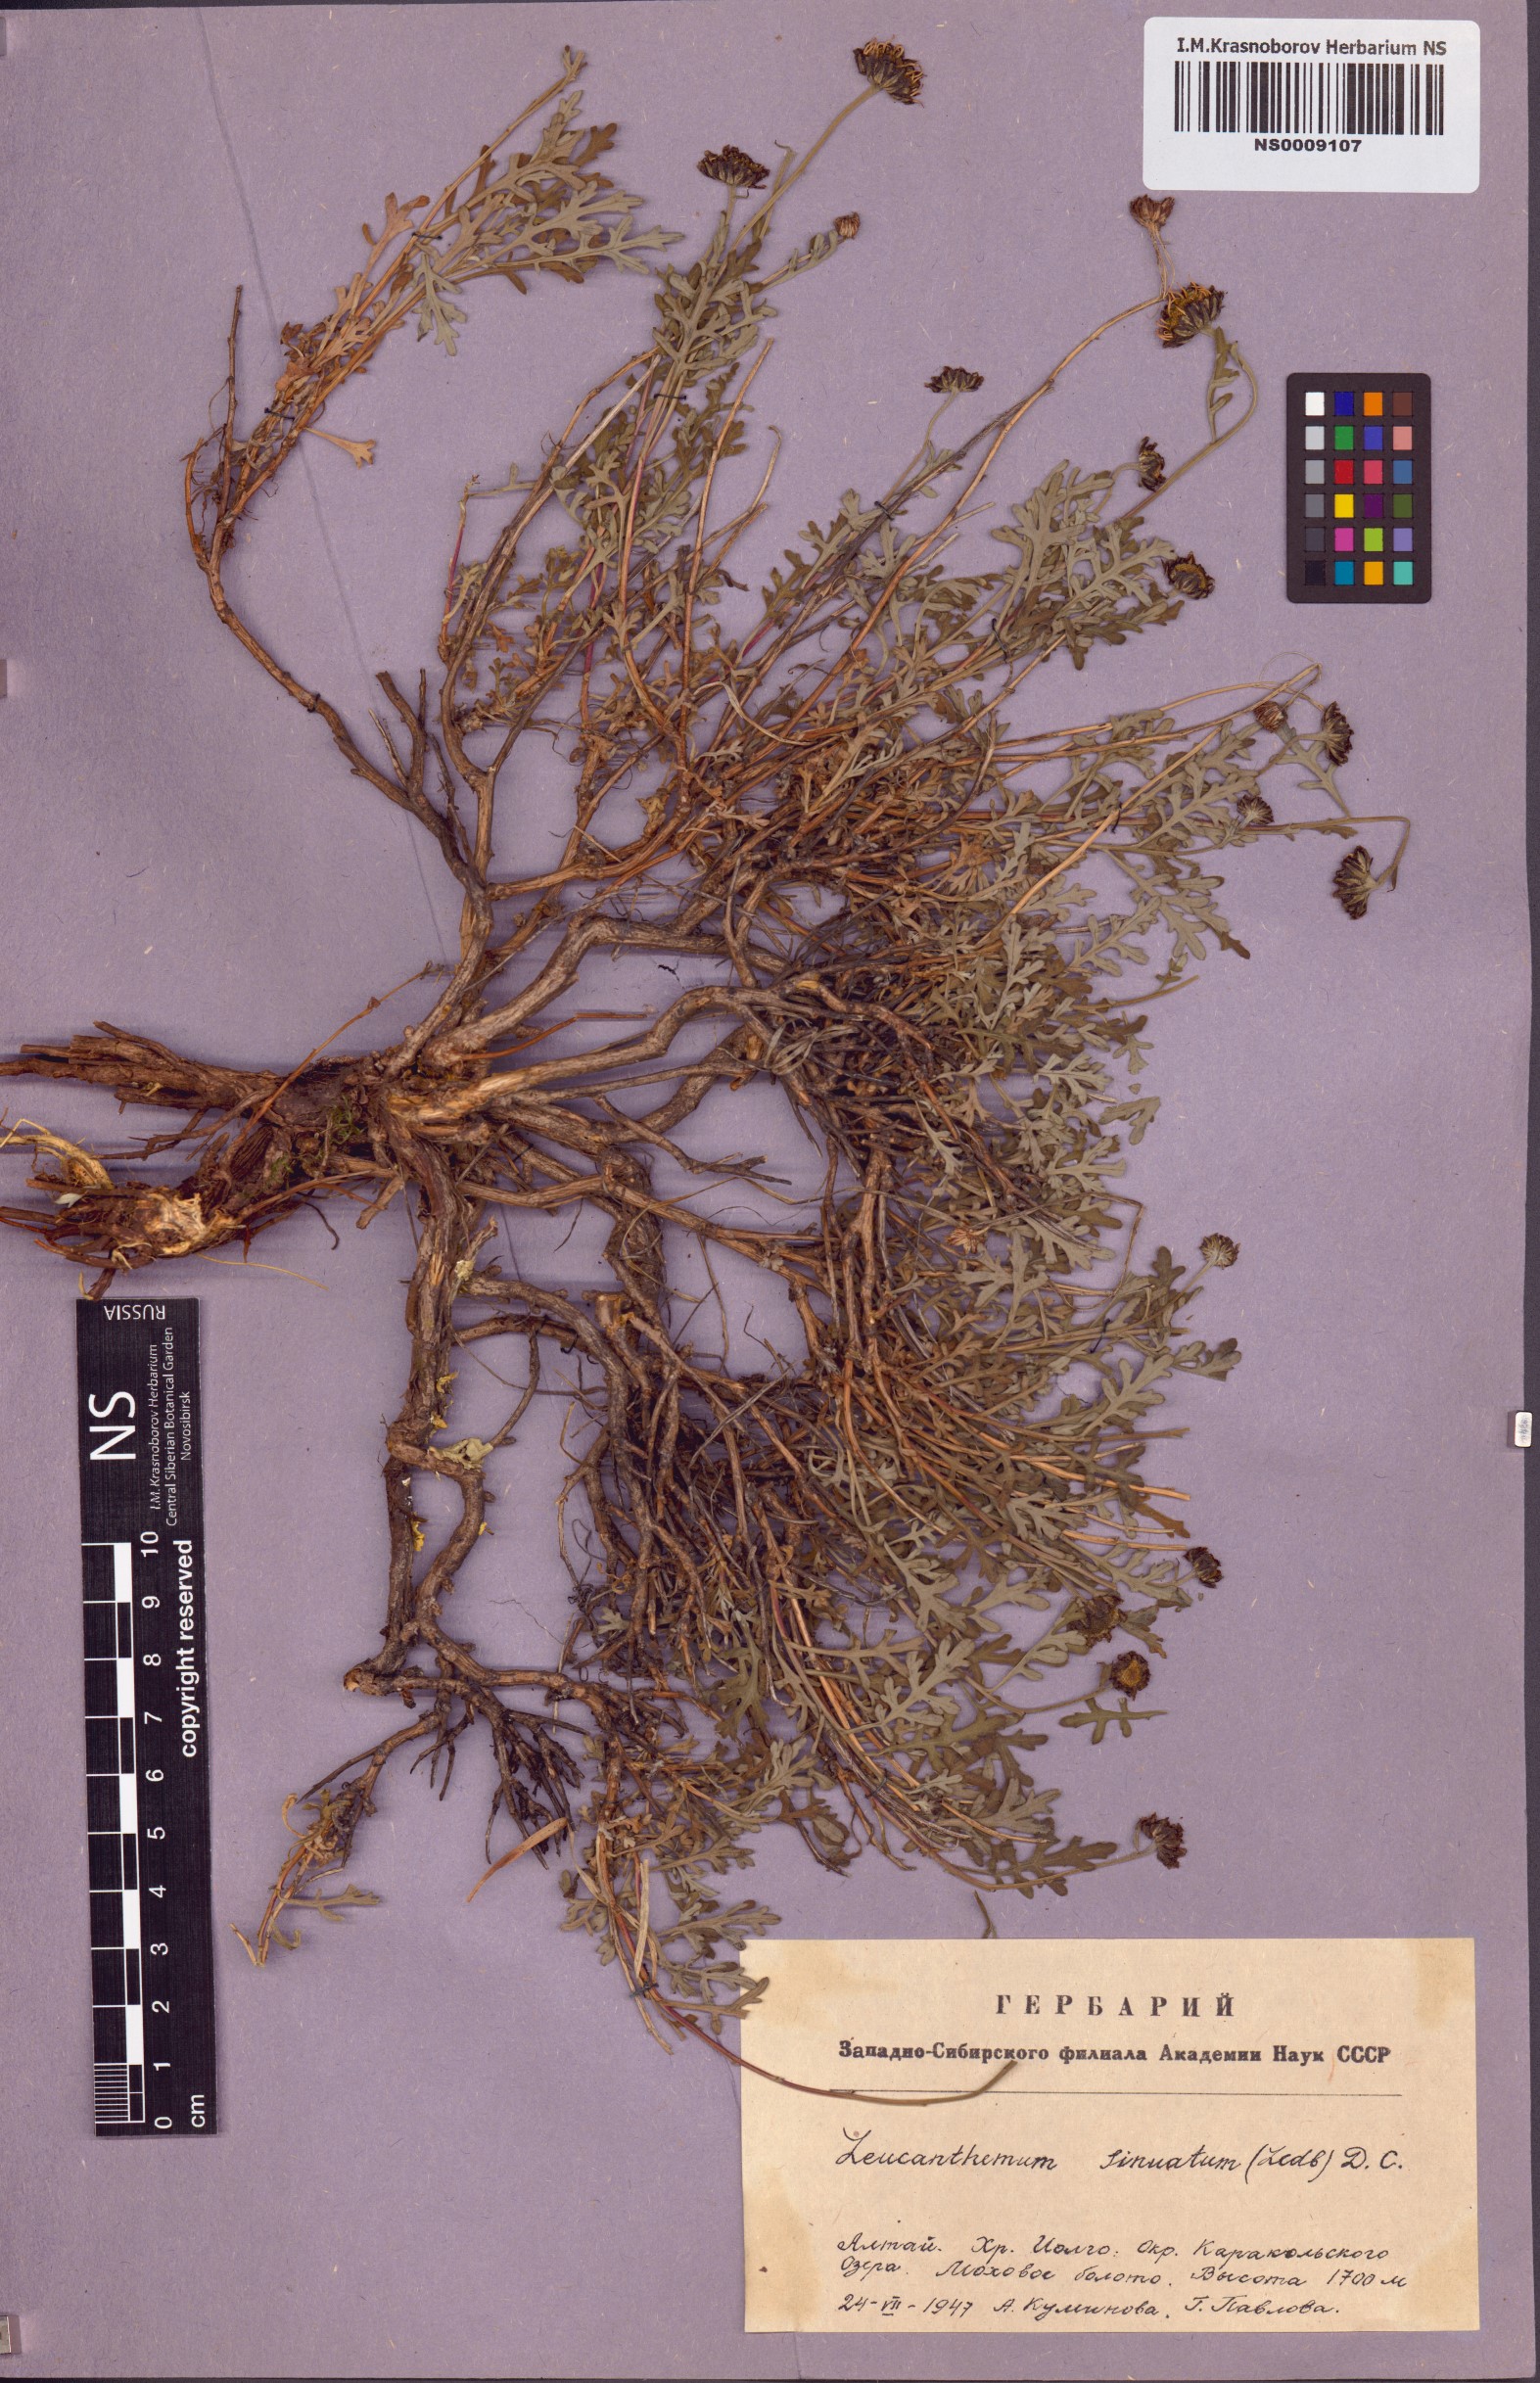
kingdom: Plantae
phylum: Tracheophyta
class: Magnoliopsida
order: Asterales
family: Asteraceae
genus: Chrysanthemum
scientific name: Chrysanthemum sinuatum
